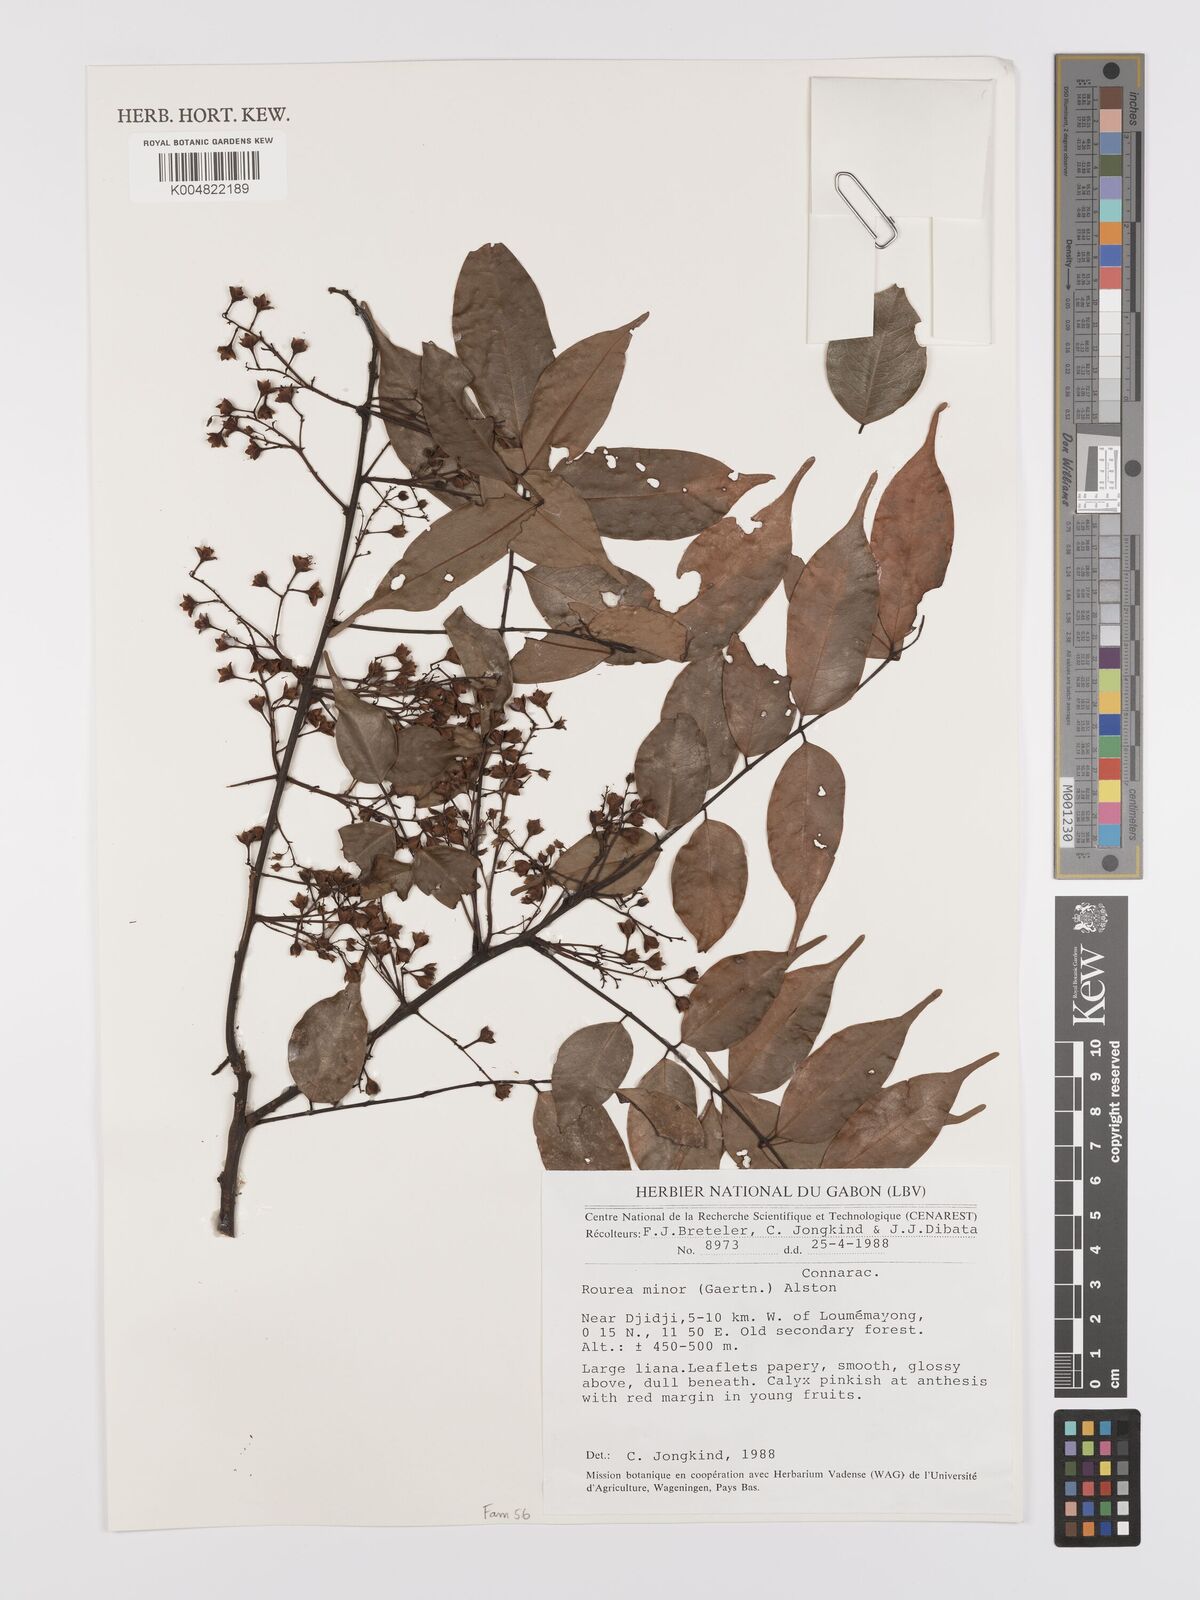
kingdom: Plantae
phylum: Tracheophyta
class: Magnoliopsida
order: Oxalidales
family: Connaraceae
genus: Rourea
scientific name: Rourea minor
